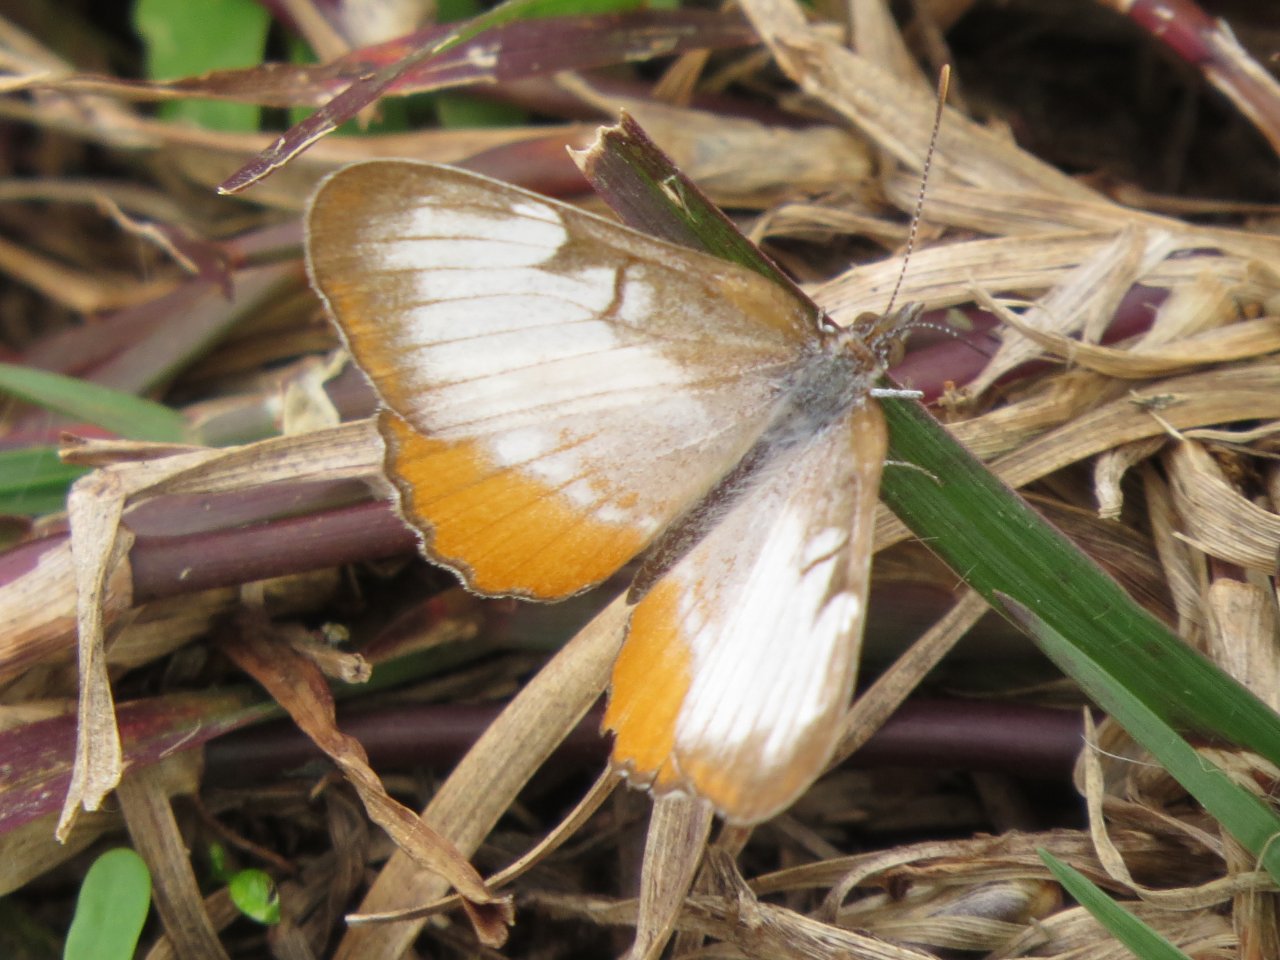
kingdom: Animalia
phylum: Arthropoda
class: Insecta
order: Lepidoptera
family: Nymphalidae
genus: Mestra
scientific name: Mestra amymone
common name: Common Mestra
